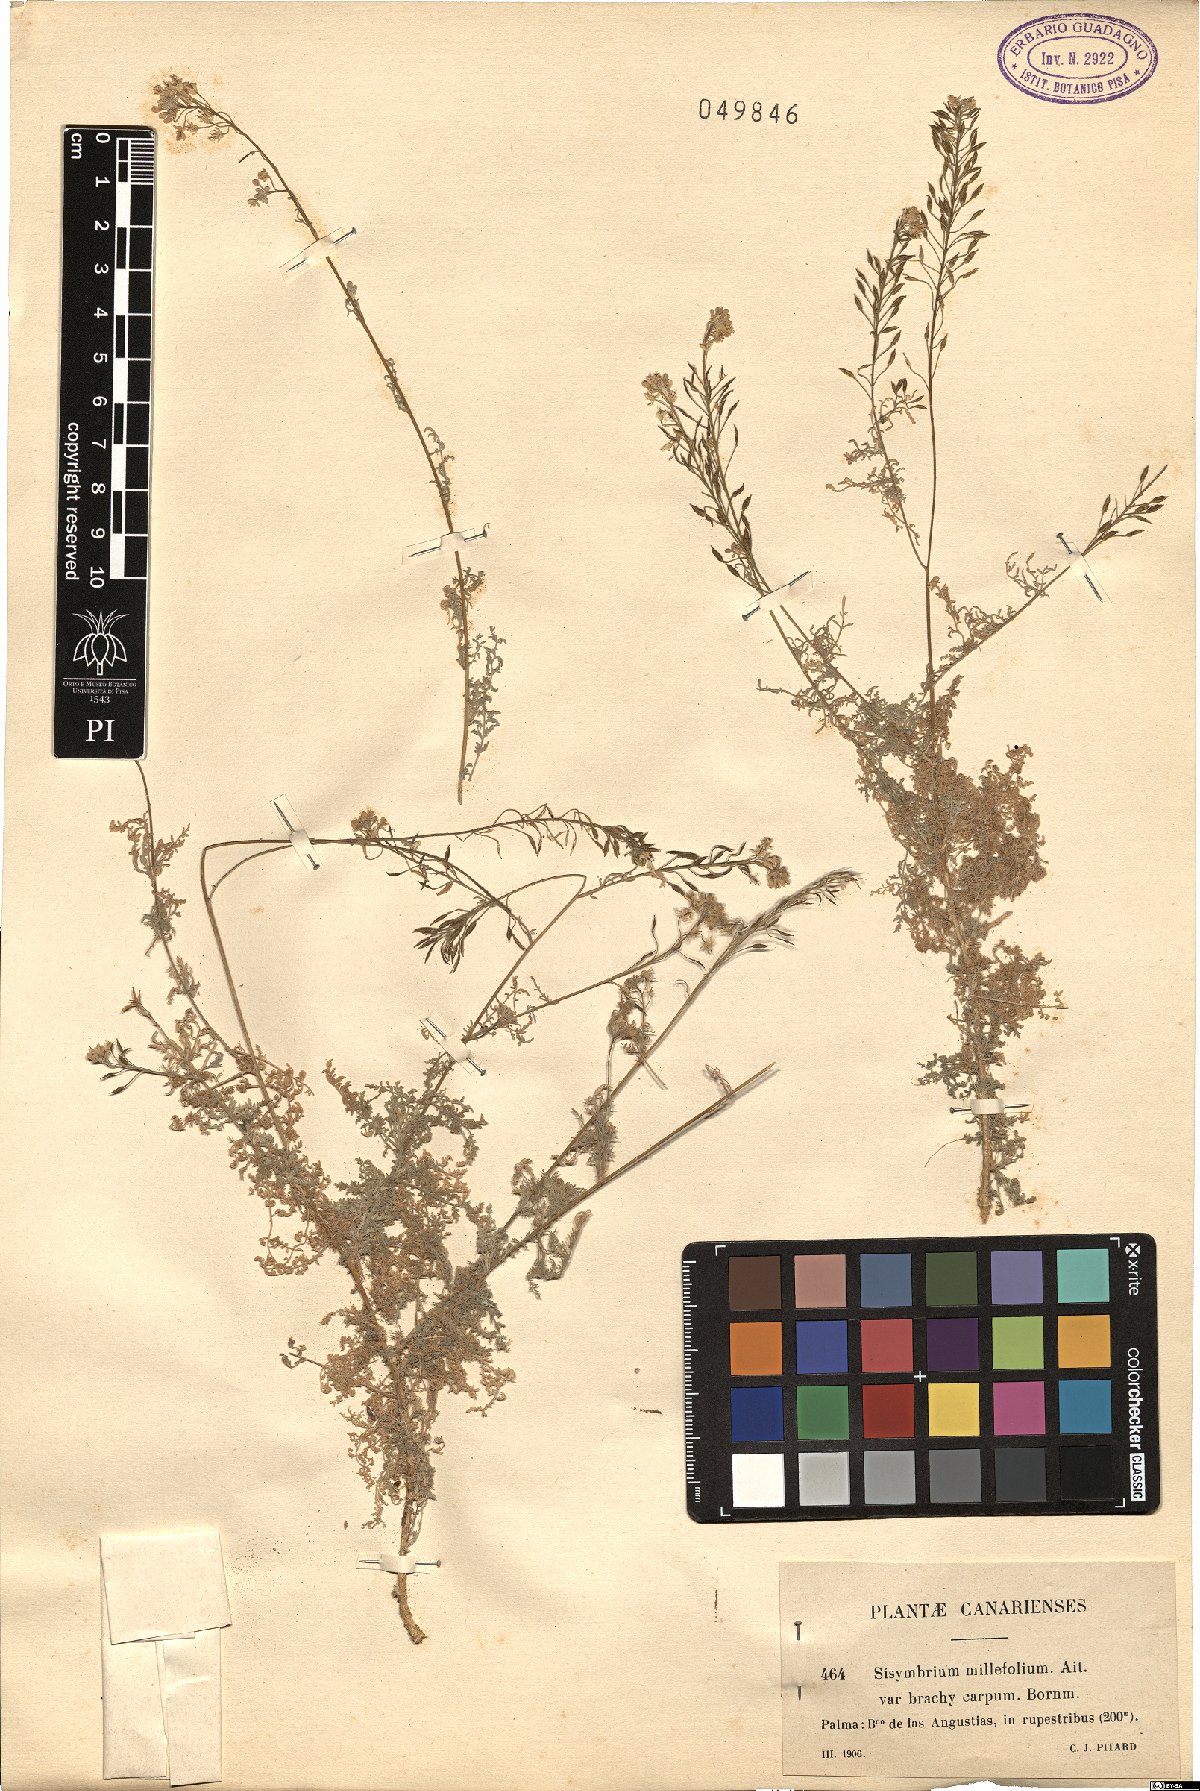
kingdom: Plantae
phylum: Tracheophyta
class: Magnoliopsida
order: Brassicales
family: Brassicaceae
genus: Descurainia
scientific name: Descurainia millefolia
